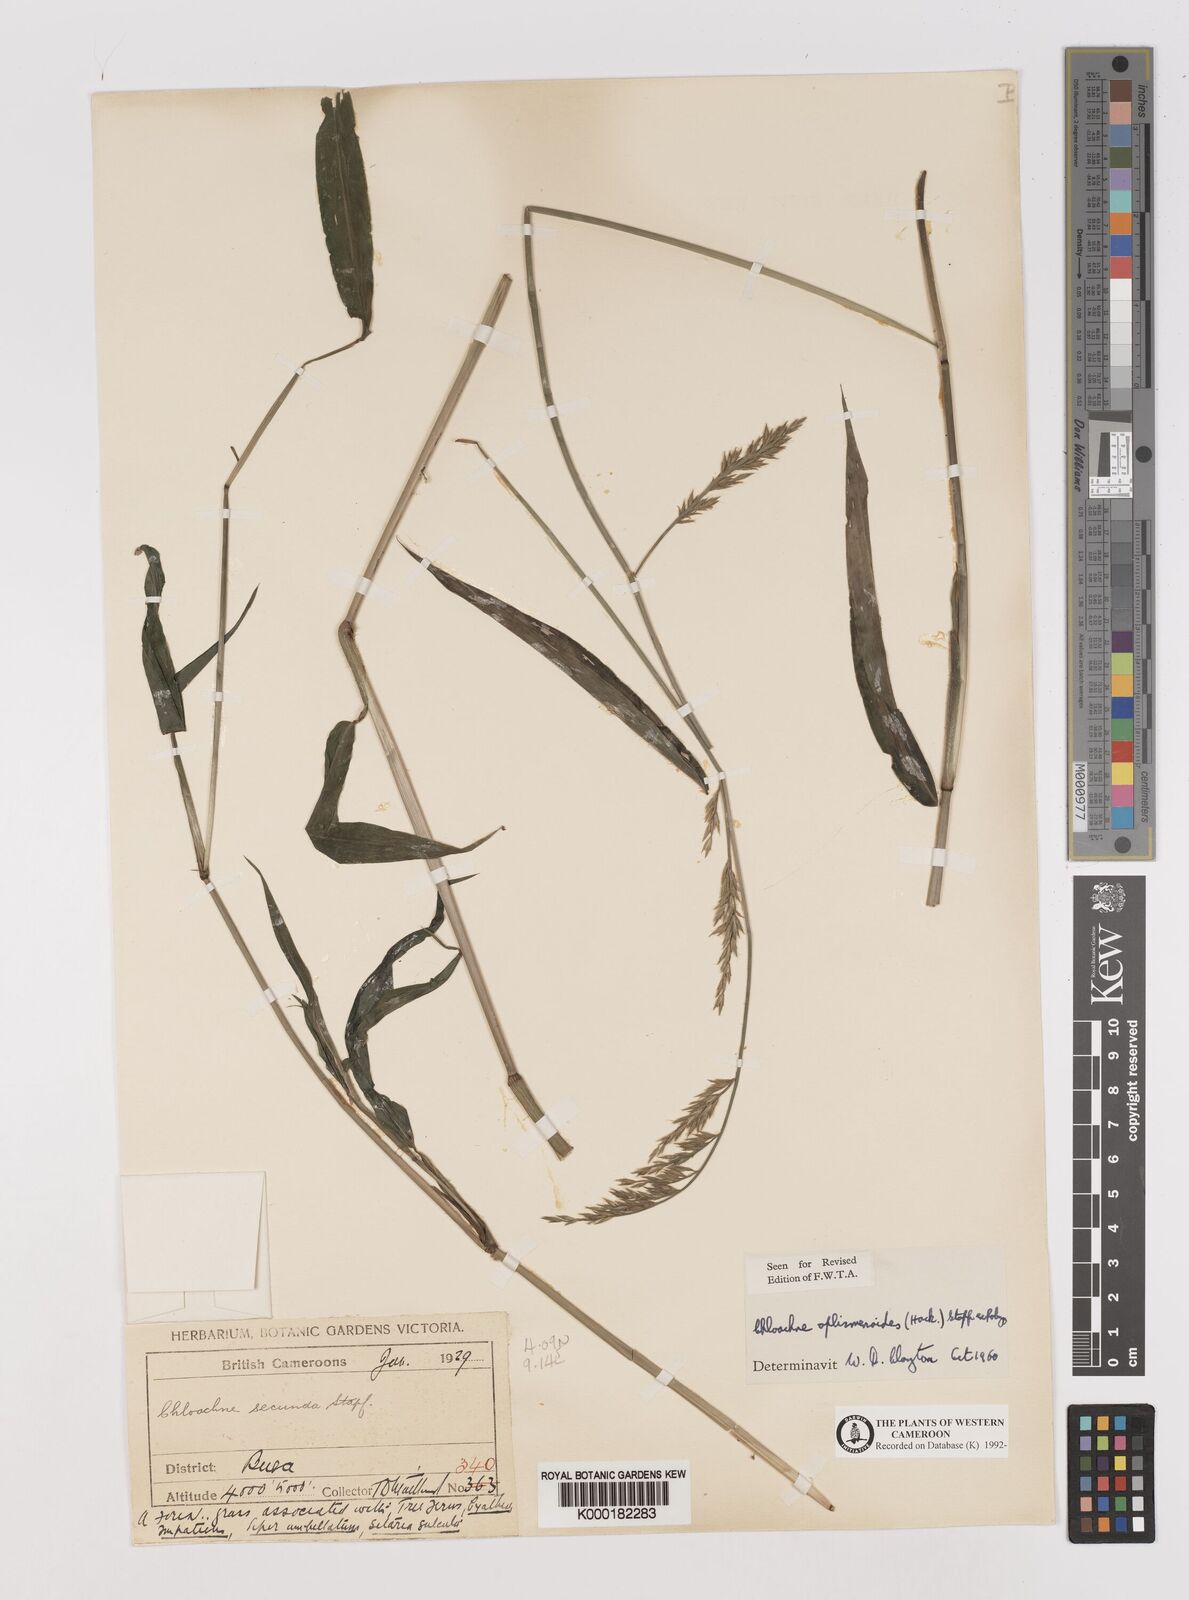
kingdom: Plantae
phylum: Tracheophyta
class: Liliopsida
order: Poales
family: Poaceae
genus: Poecilostachys
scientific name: Poecilostachys oplismenoides
